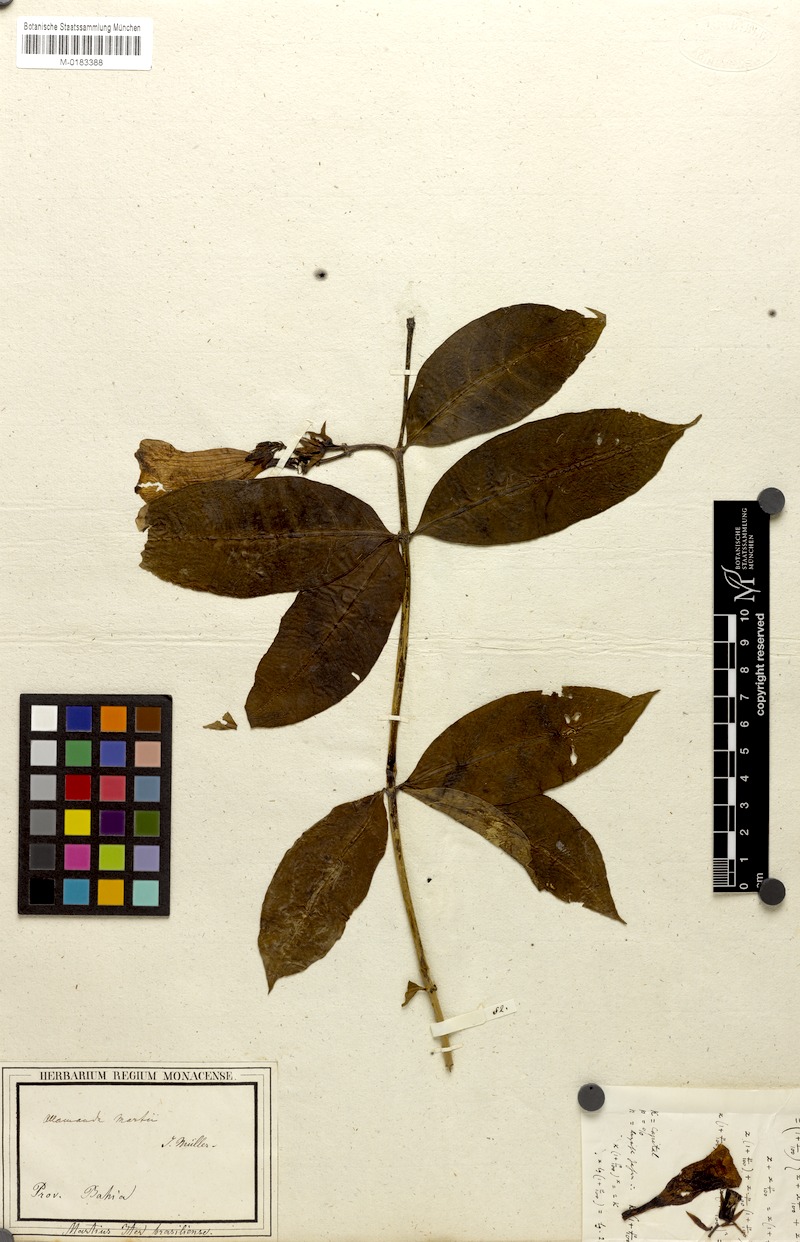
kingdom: Plantae
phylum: Tracheophyta
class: Magnoliopsida
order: Gentianales
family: Apocynaceae
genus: Allamanda
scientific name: Allamanda martii
